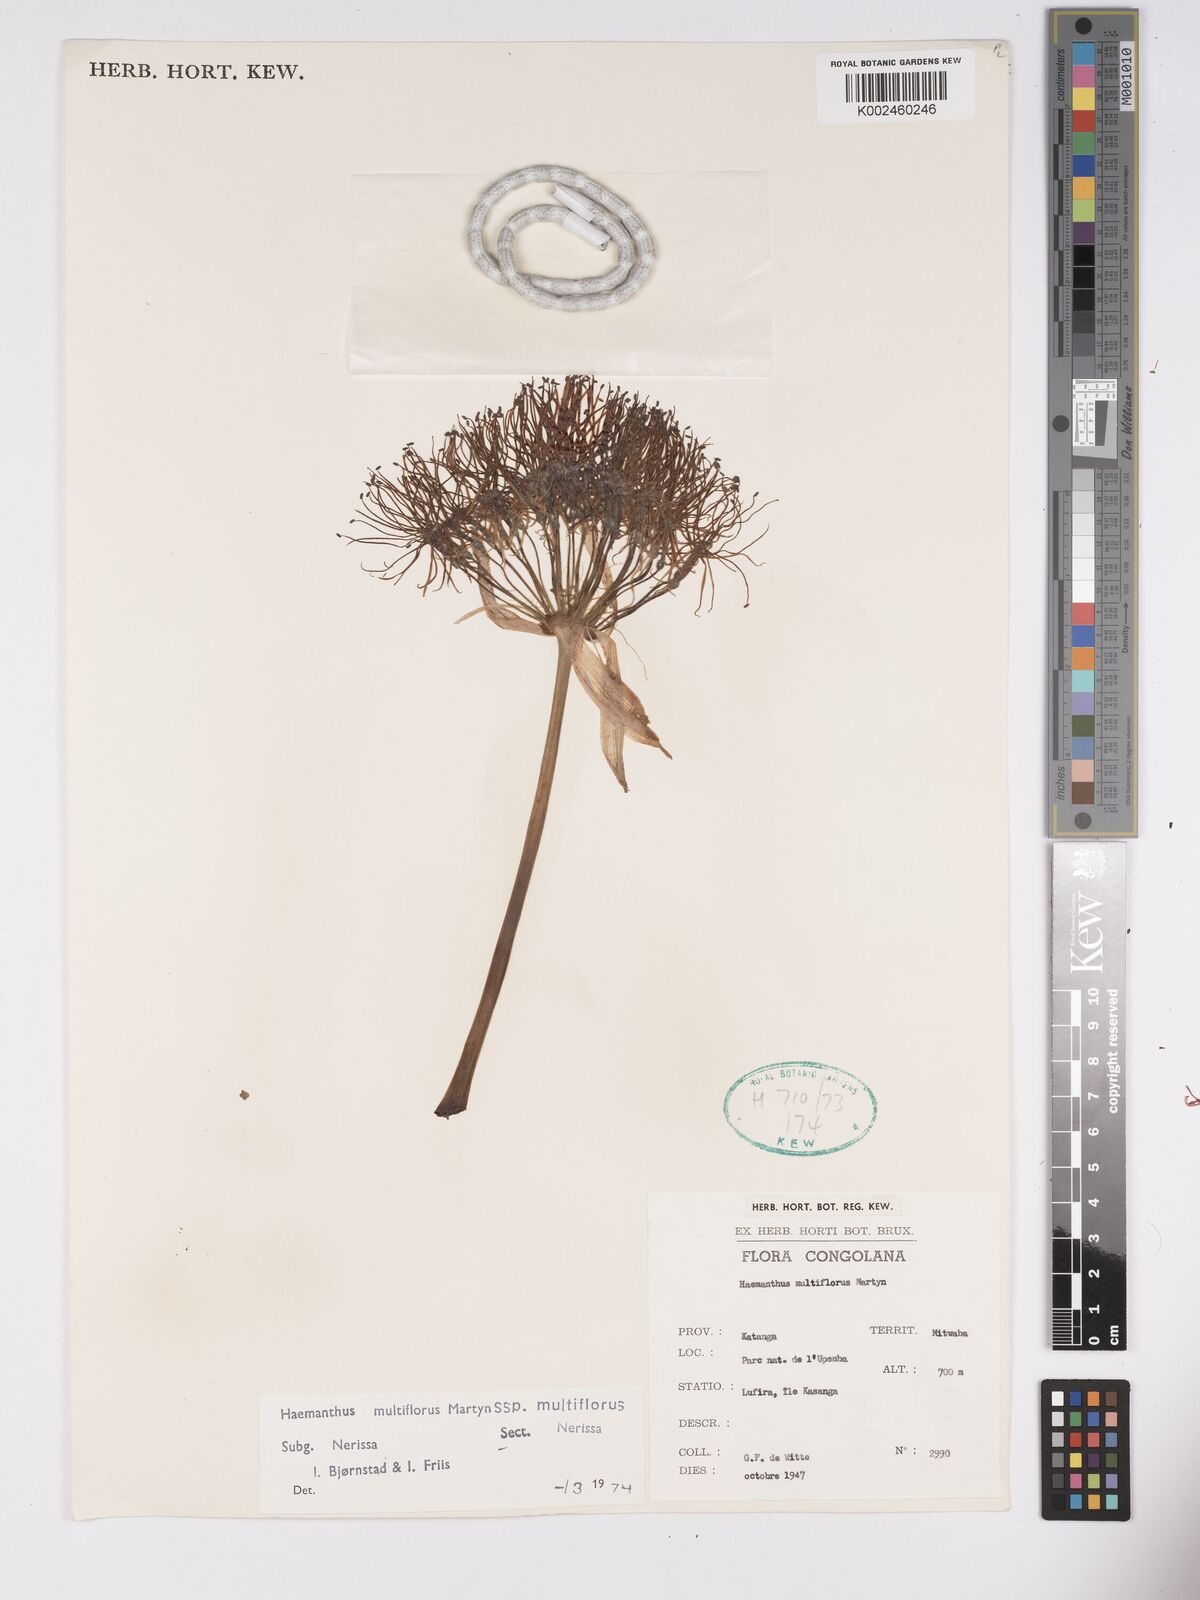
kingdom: Plantae
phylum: Tracheophyta
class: Liliopsida
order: Asparagales
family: Amaryllidaceae
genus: Scadoxus
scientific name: Scadoxus multiflorus
